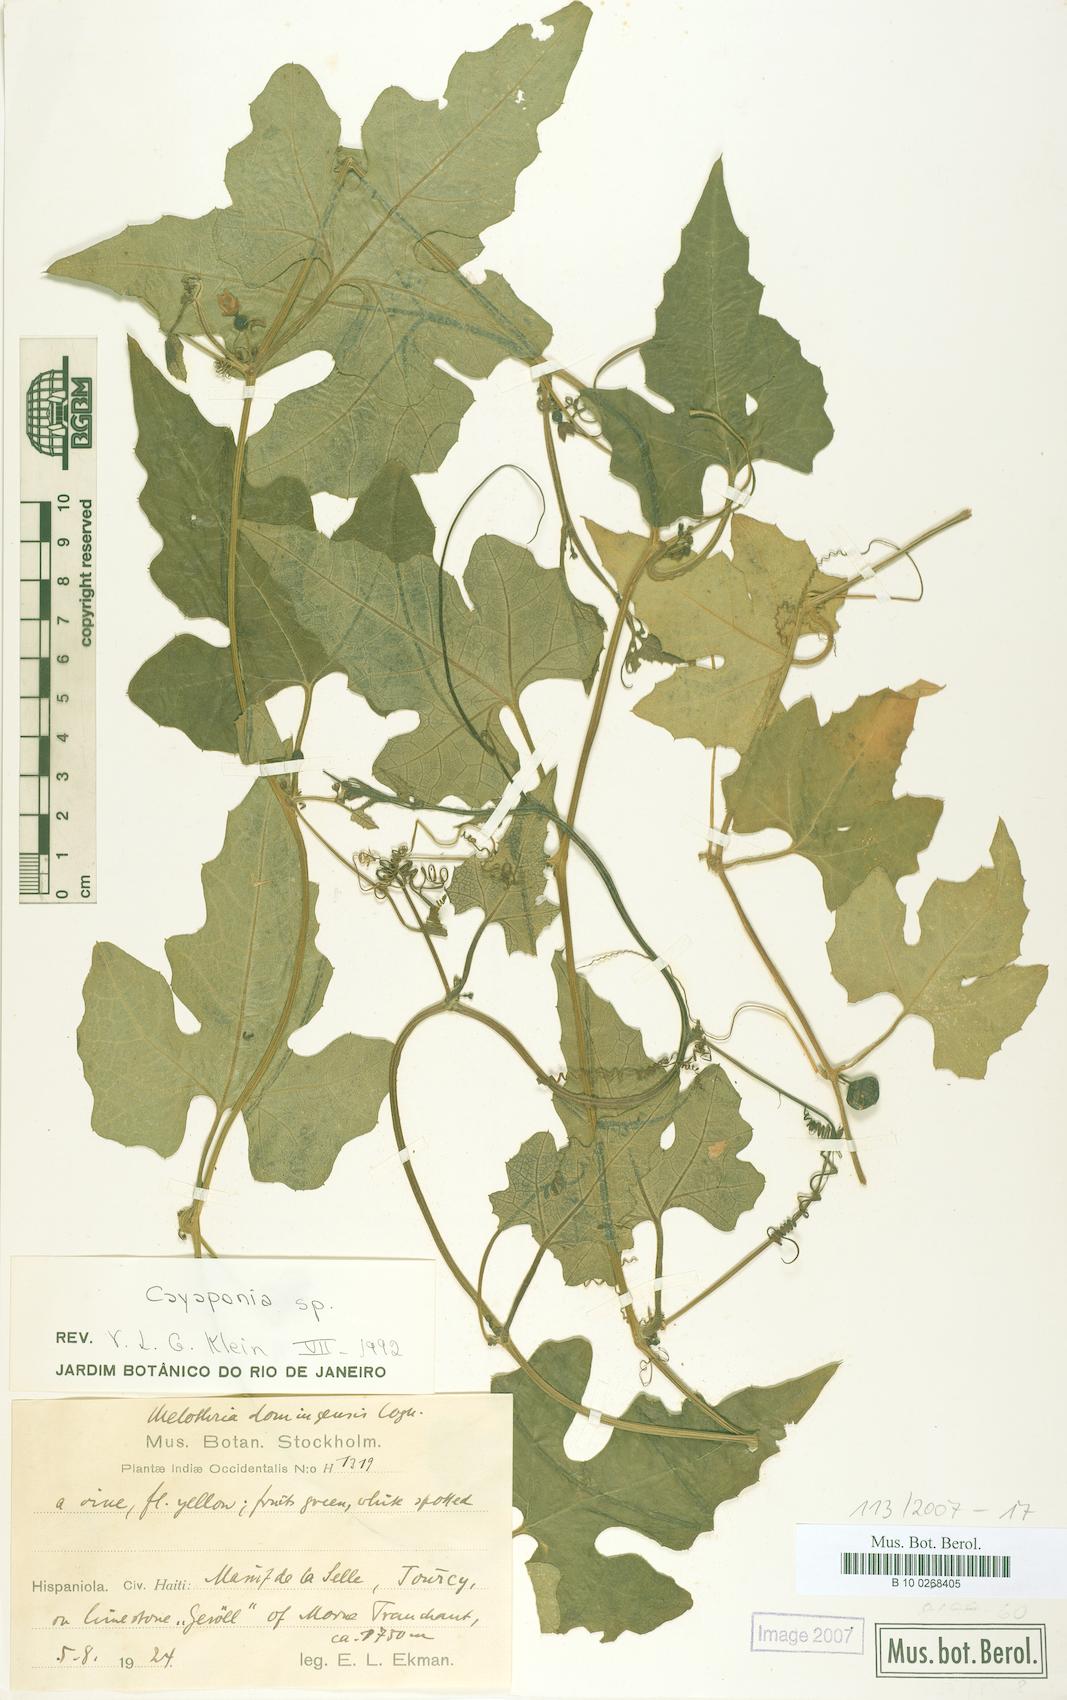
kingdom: Plantae
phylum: Tracheophyta
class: Magnoliopsida
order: Cucurbitales
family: Cucurbitaceae
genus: Cayaponia
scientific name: Cayaponia domingensis
